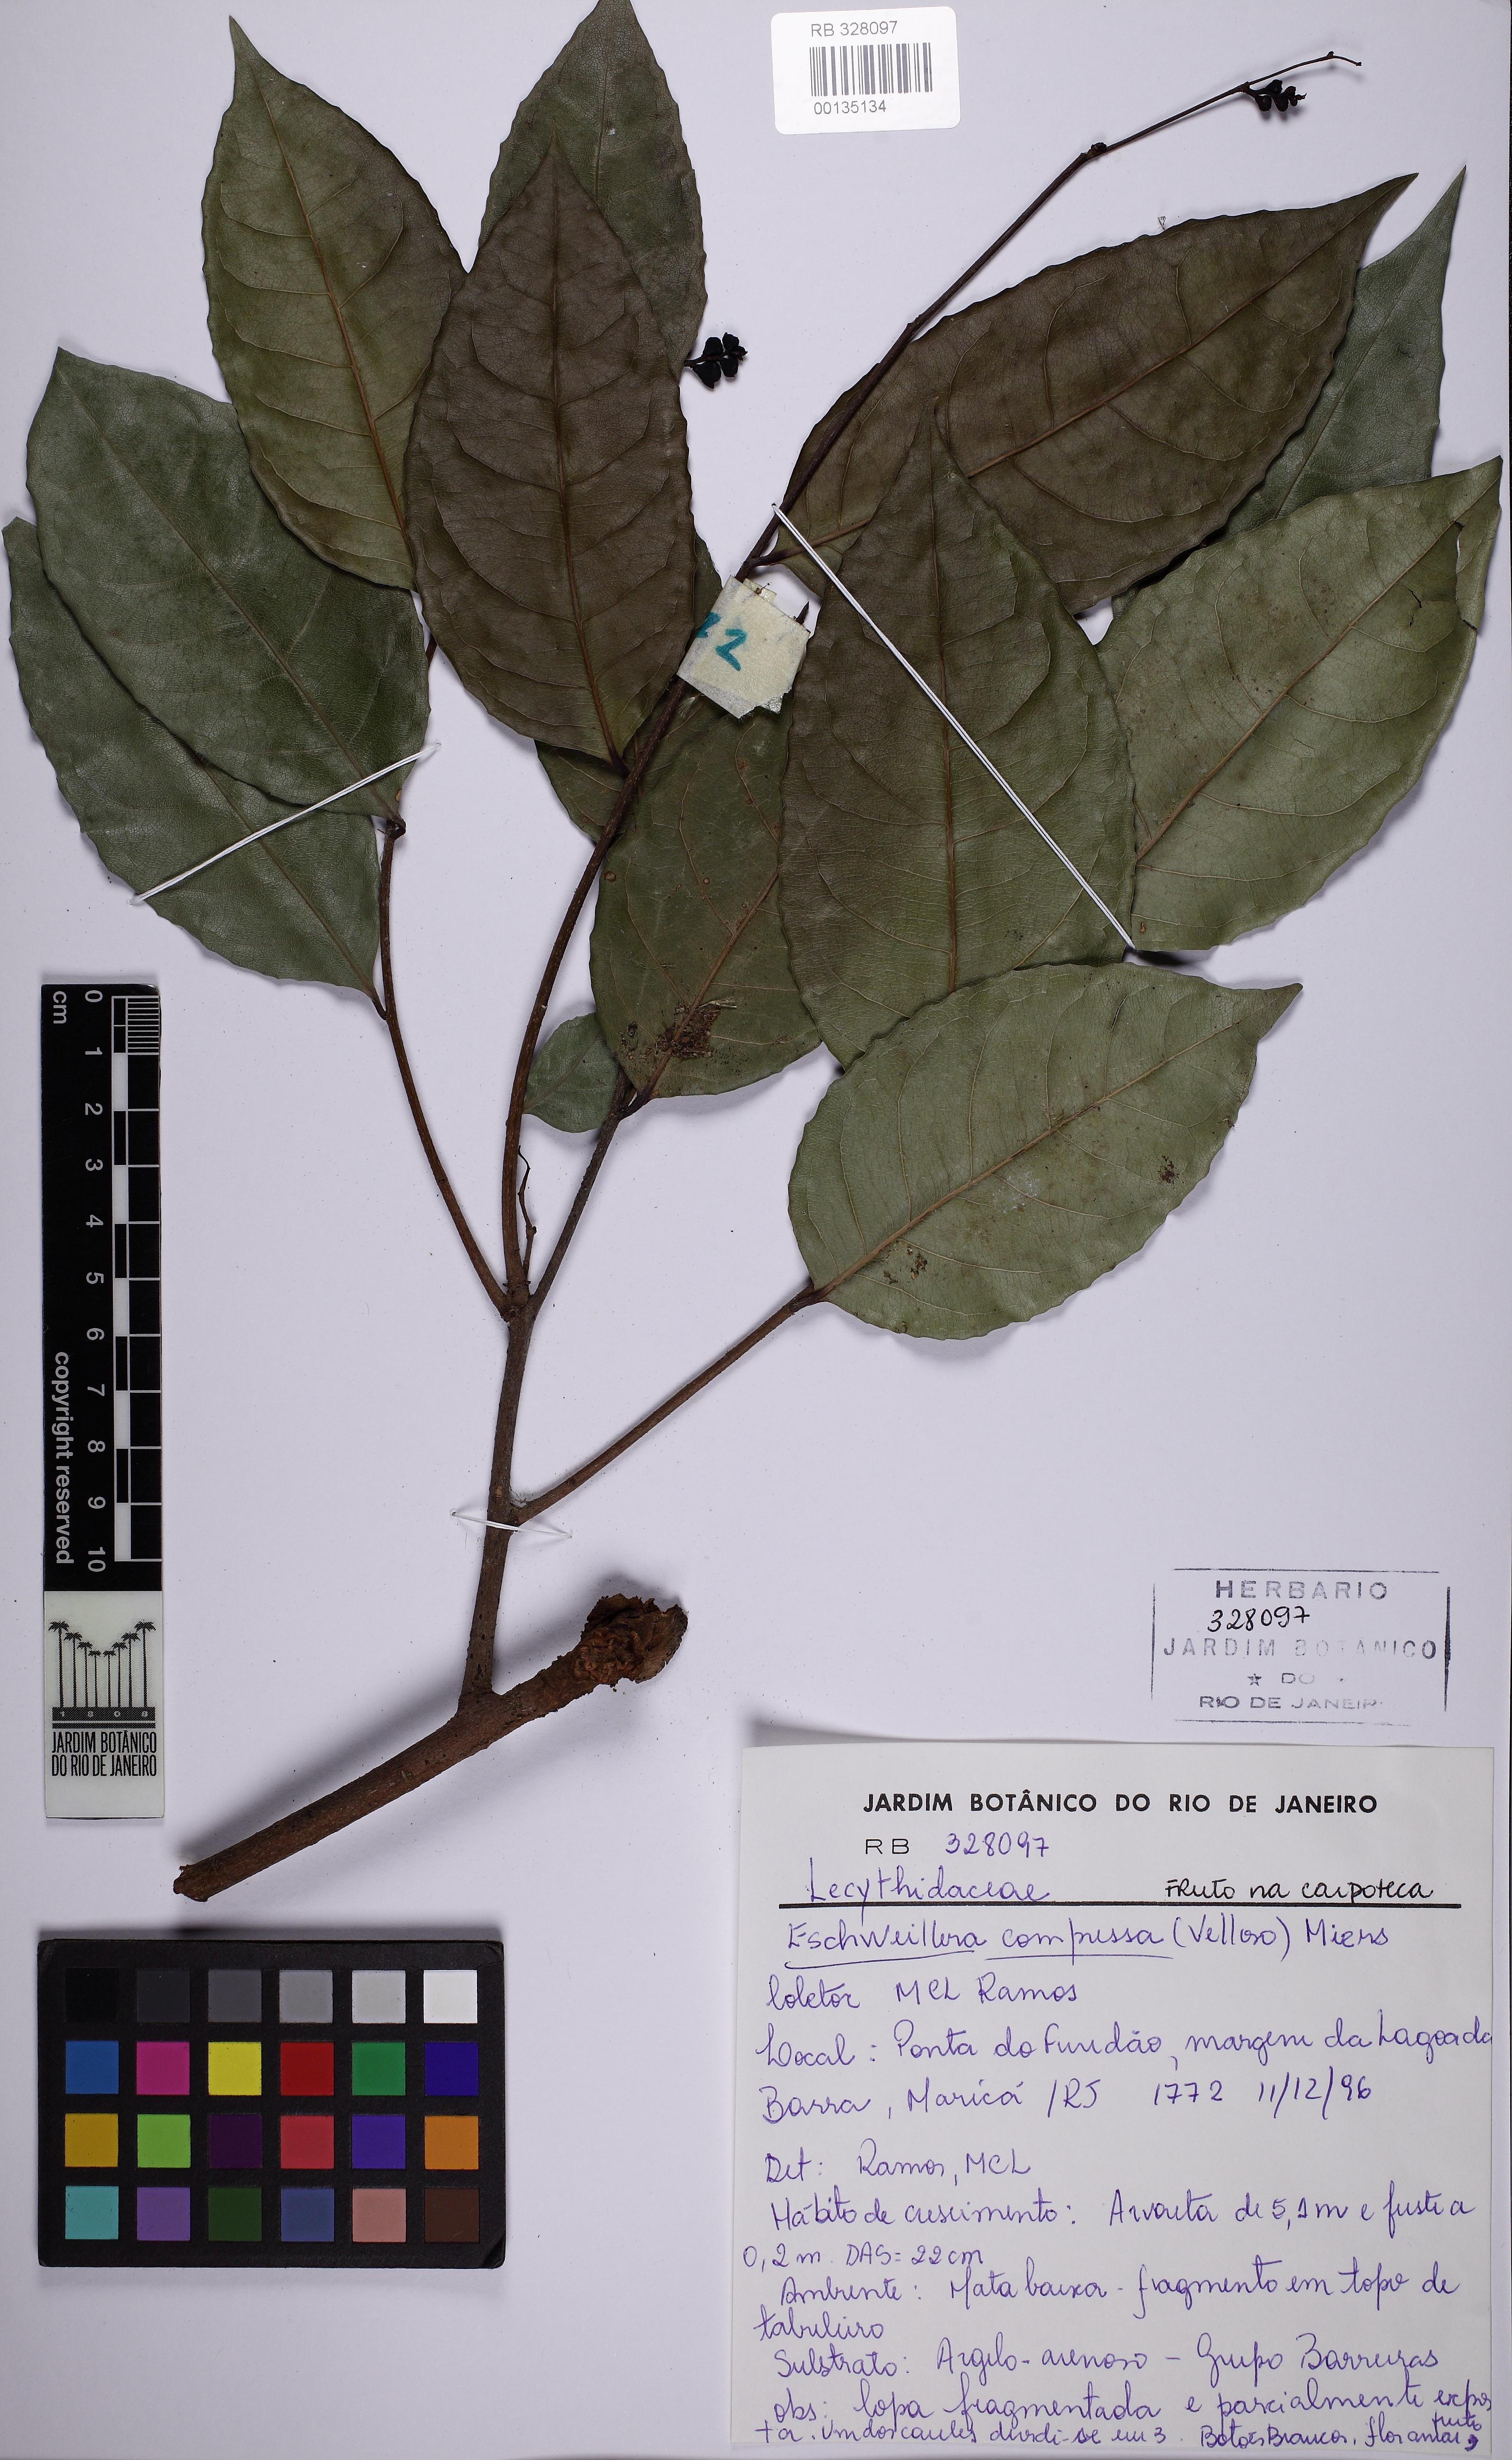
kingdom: Plantae
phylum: Tracheophyta
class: Magnoliopsida
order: Ericales
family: Lecythidaceae
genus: Eschweilera
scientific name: Eschweilera compressa
